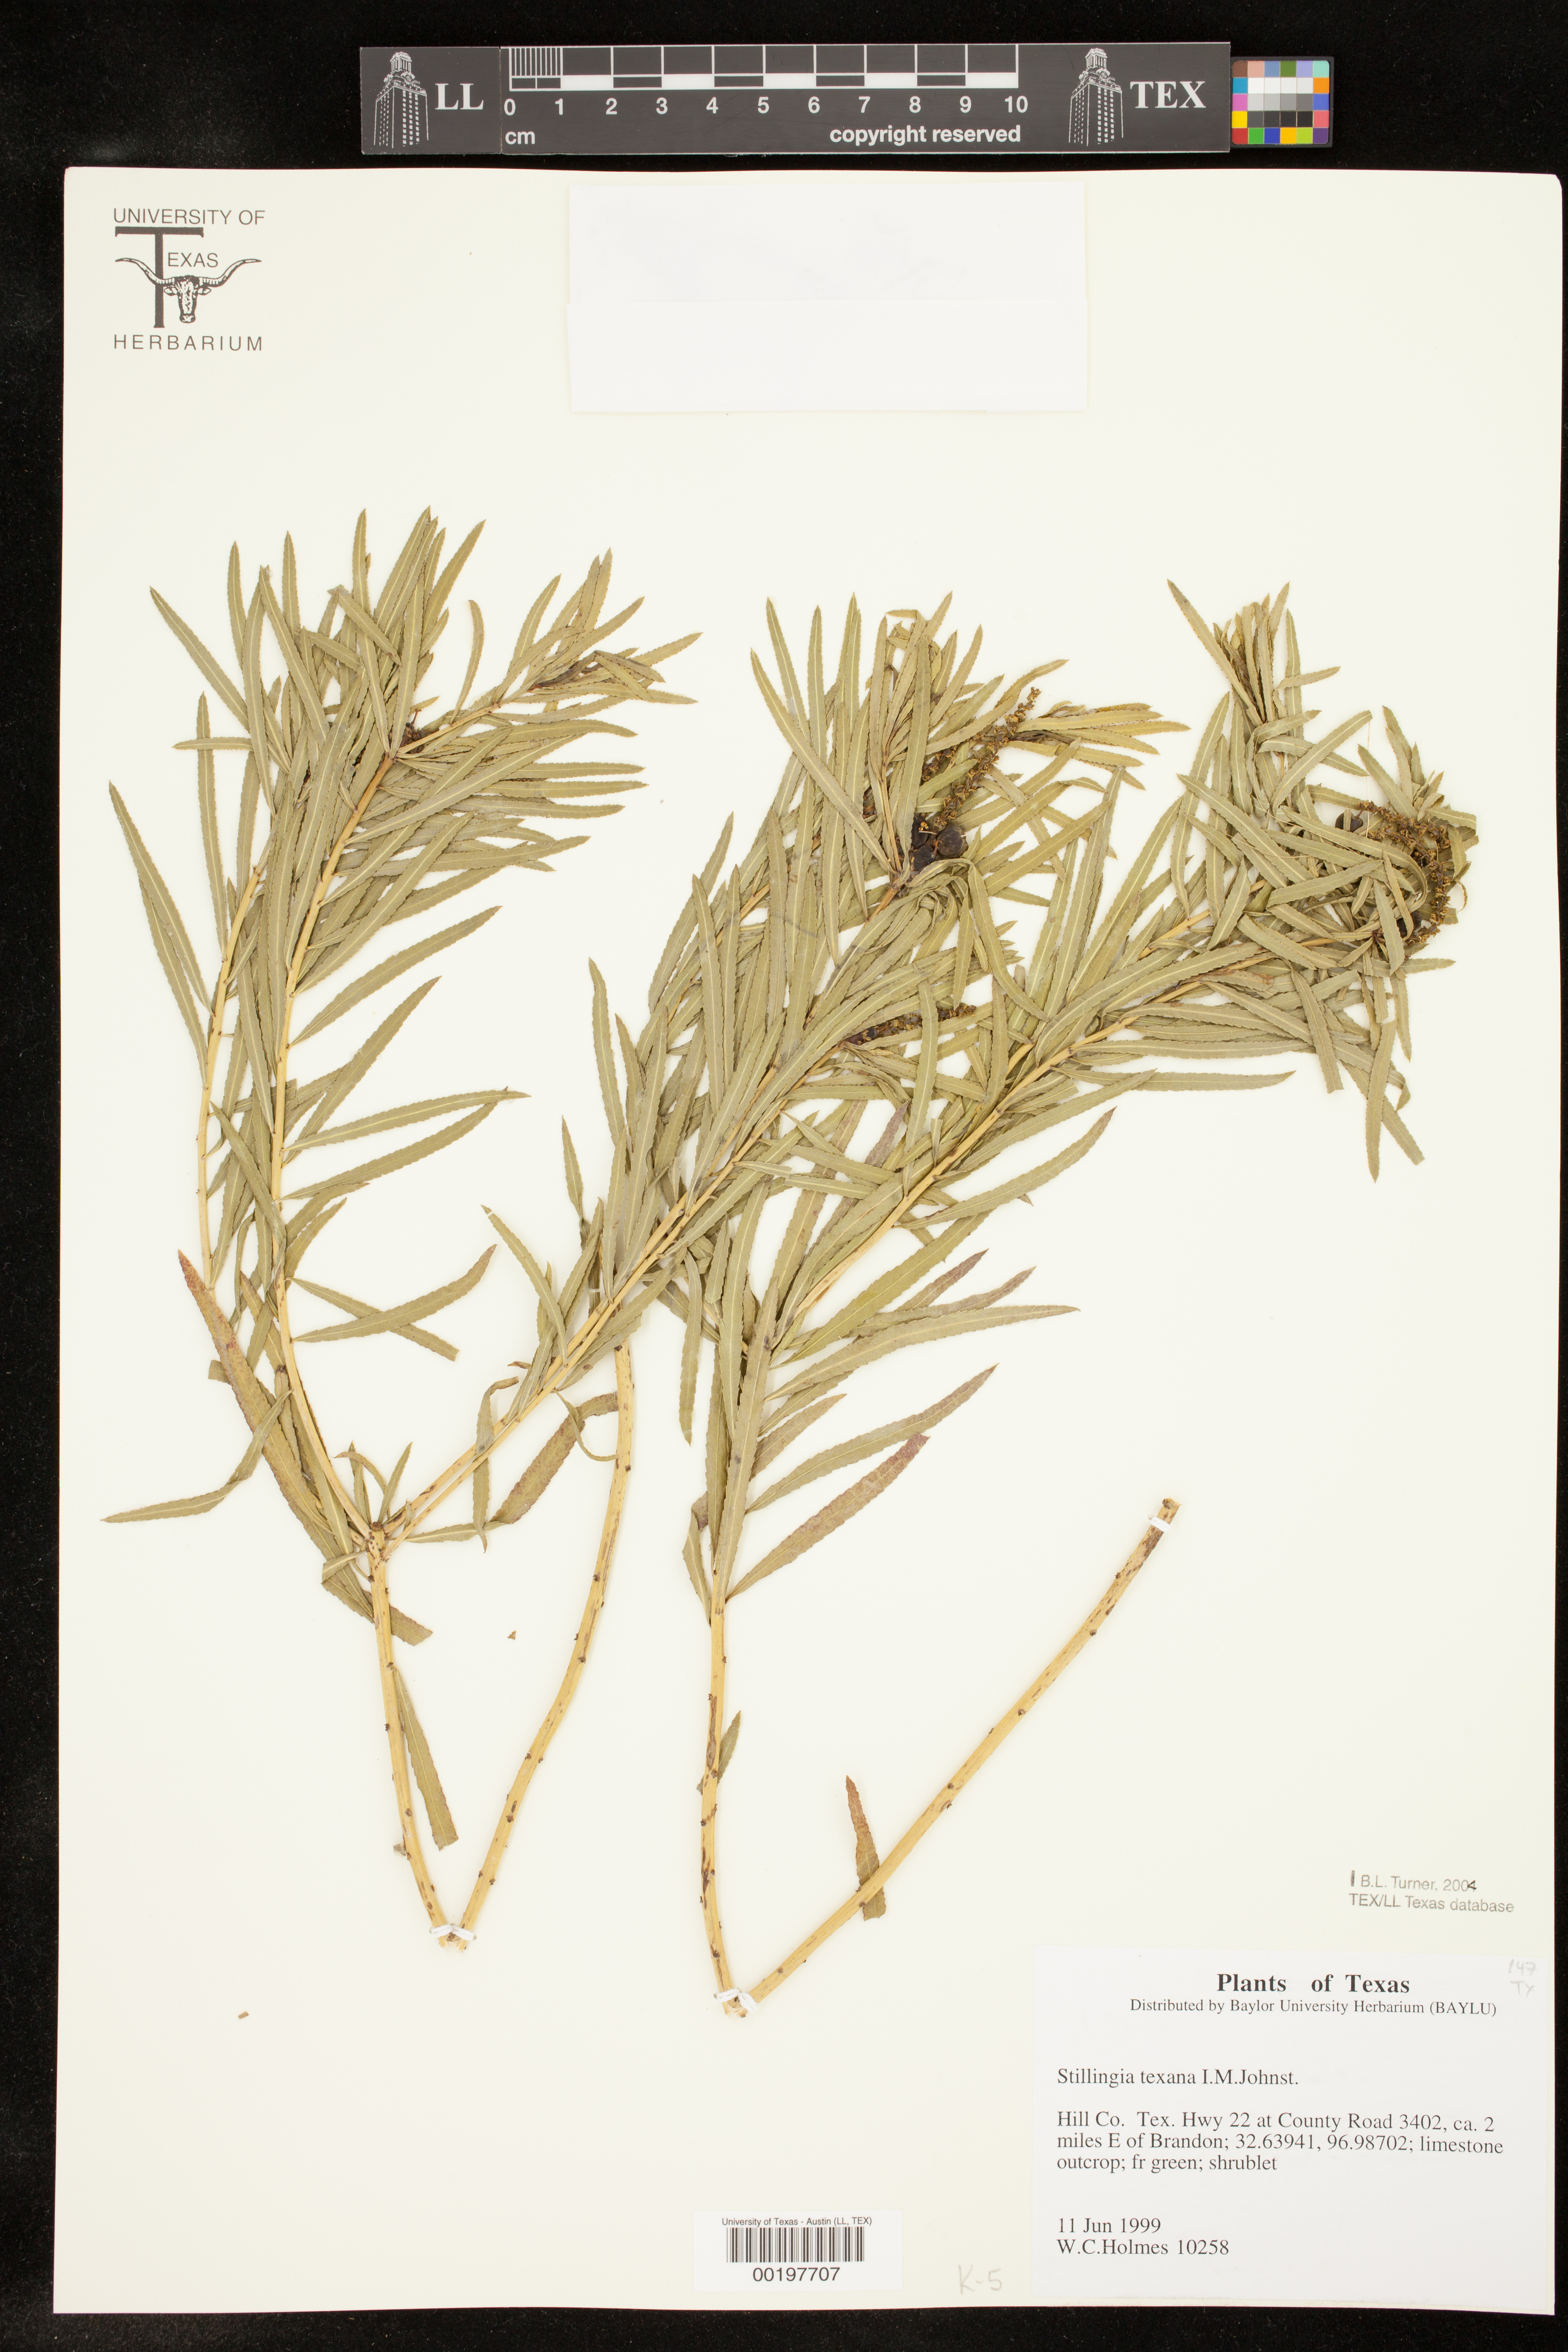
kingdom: Plantae
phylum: Tracheophyta
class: Magnoliopsida
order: Malpighiales
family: Euphorbiaceae
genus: Stillingia
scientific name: Stillingia texana
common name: Texas stillingia
